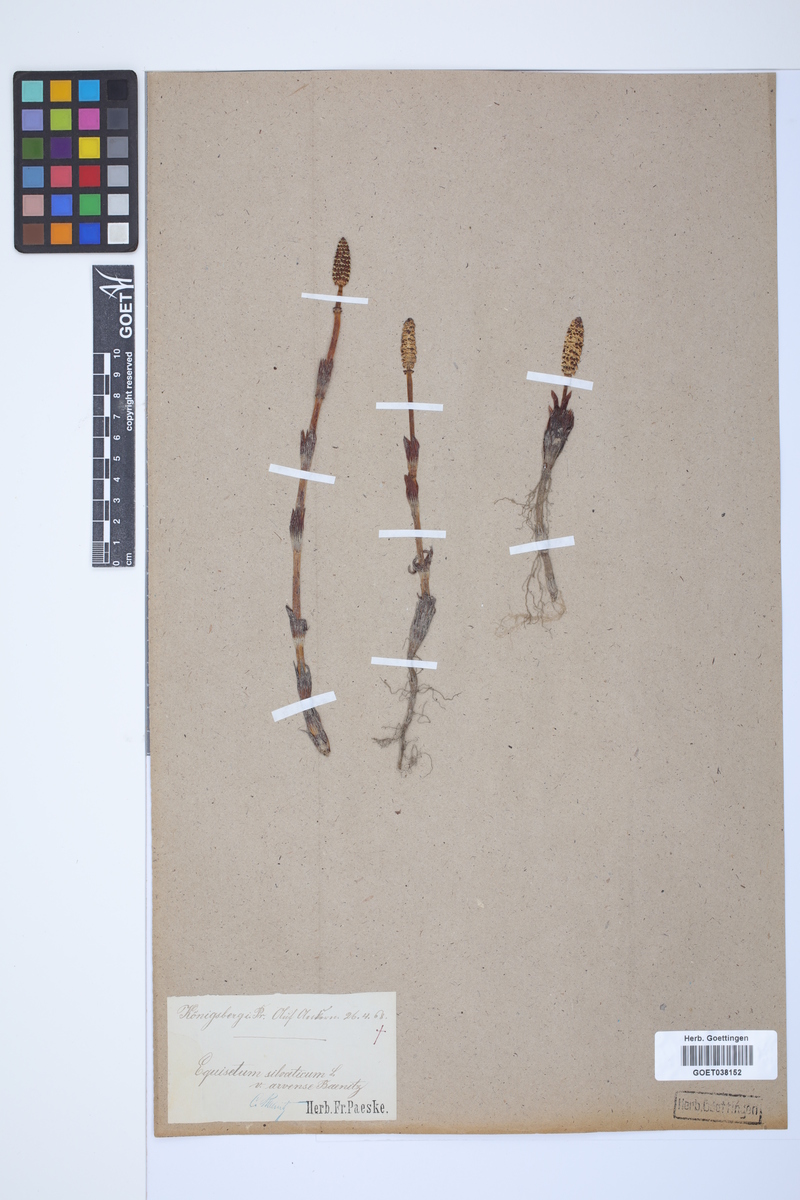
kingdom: Plantae
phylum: Tracheophyta
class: Polypodiopsida
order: Equisetales
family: Equisetaceae
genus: Equisetum
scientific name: Equisetum arvense
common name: Field horsetail
